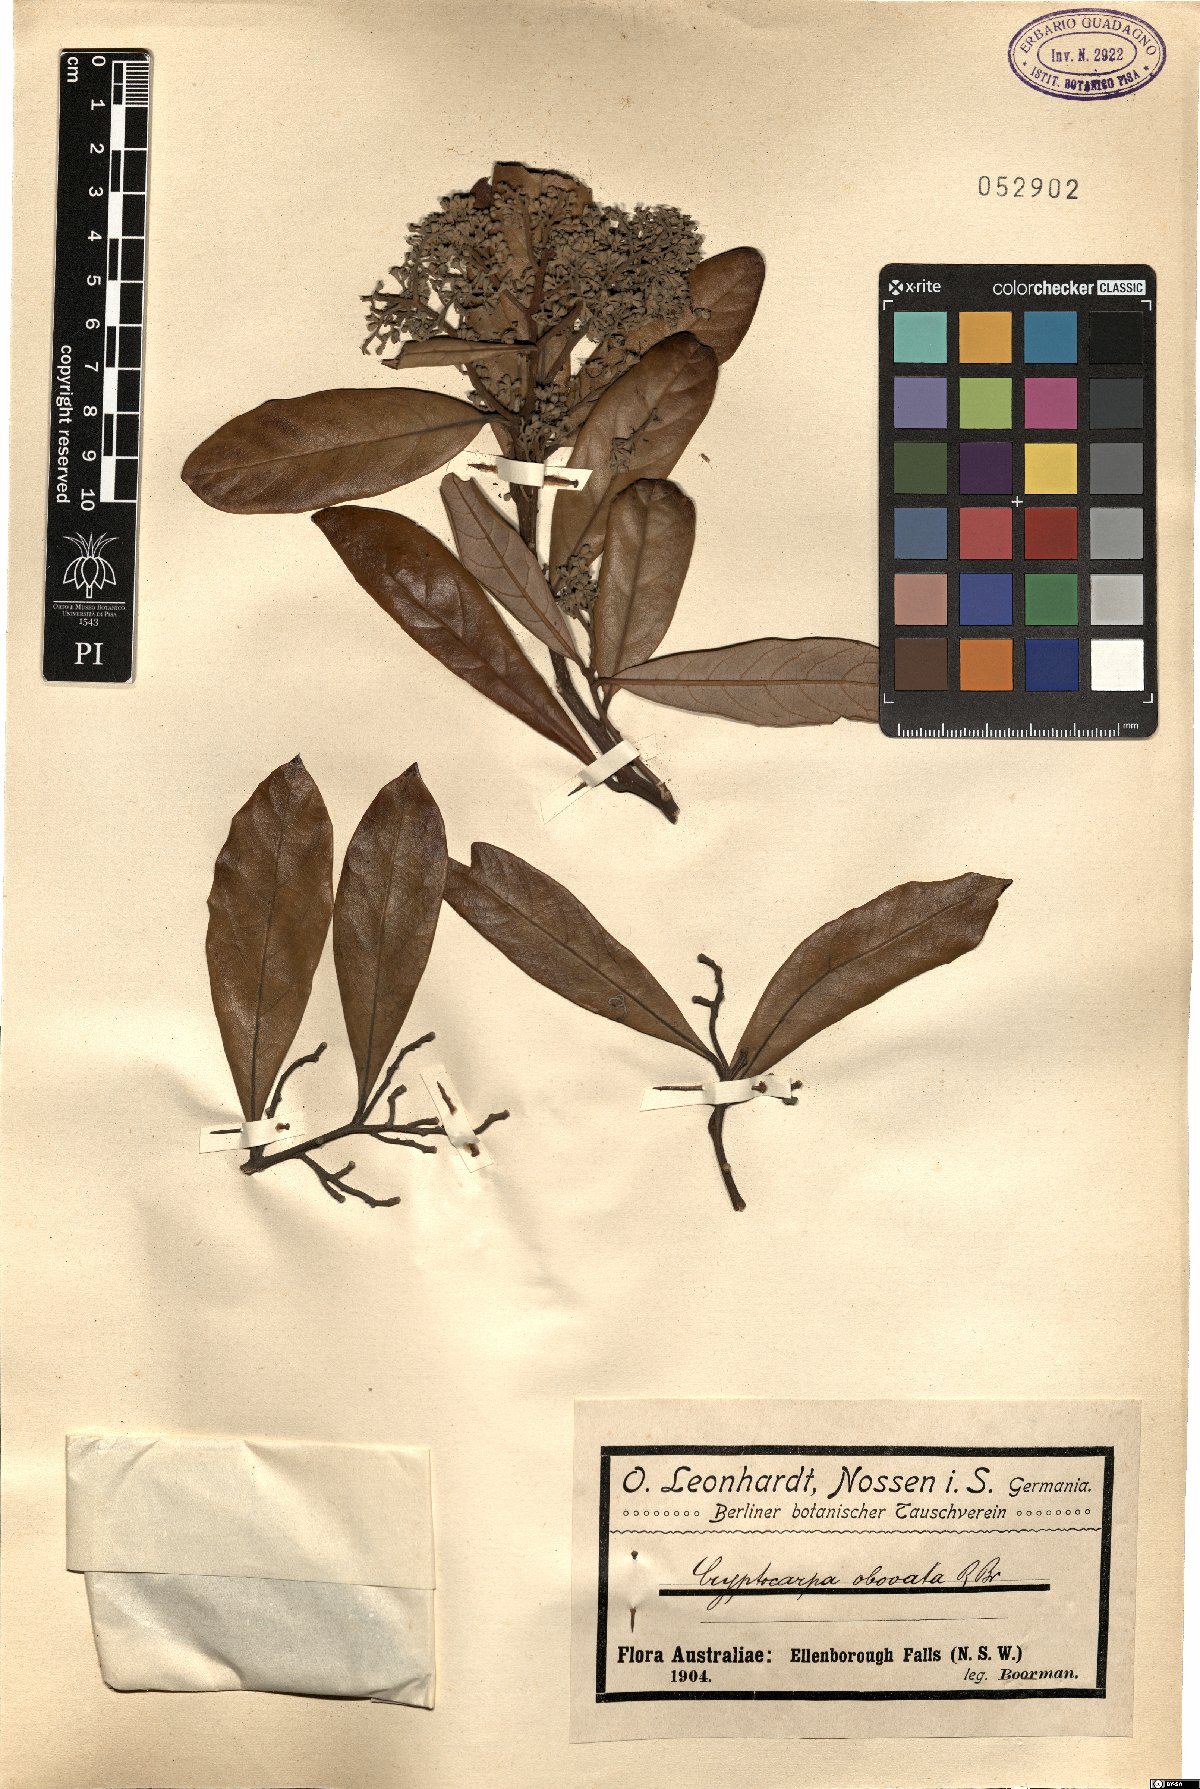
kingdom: Plantae
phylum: Tracheophyta
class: Magnoliopsida
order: Laurales
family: Lauraceae
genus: Cryptocarya
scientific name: Cryptocarya obovata
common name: Pepperberry-tree
